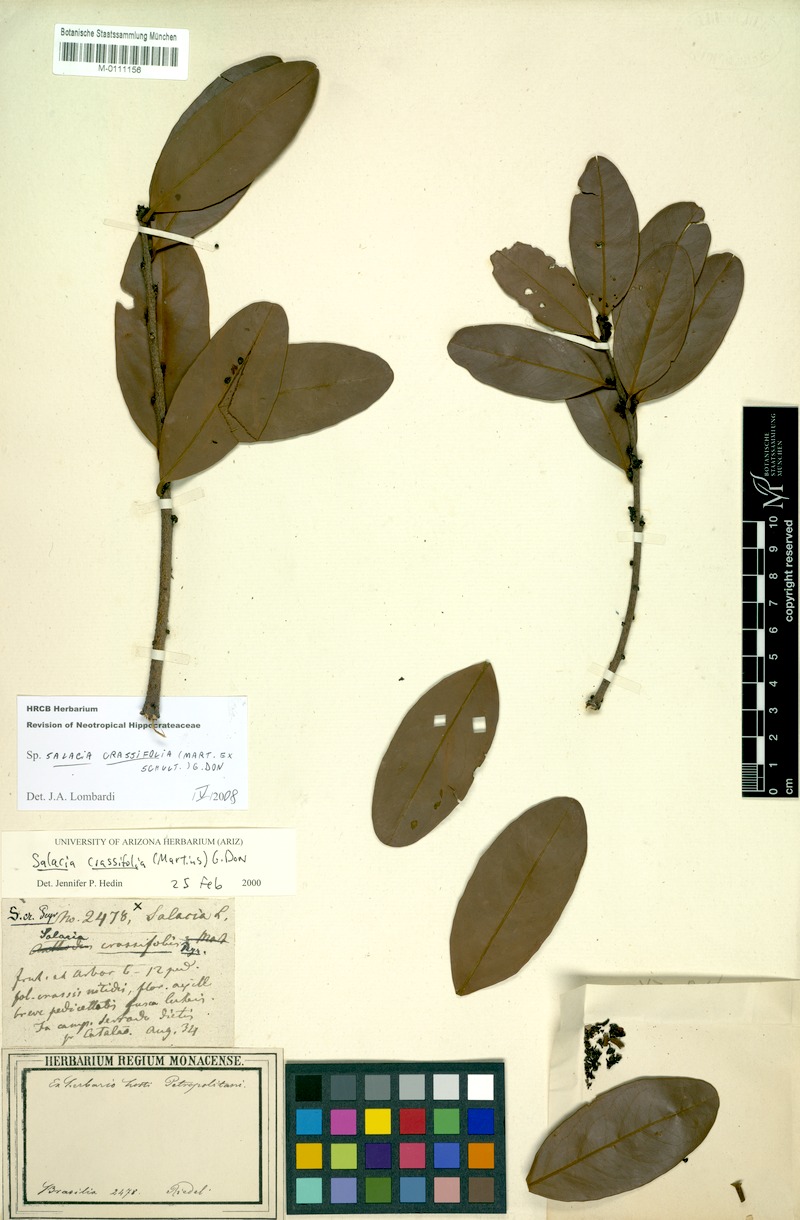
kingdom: Plantae
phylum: Tracheophyta
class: Magnoliopsida
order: Celastrales
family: Celastraceae
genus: Salacia
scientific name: Salacia crassifolia
